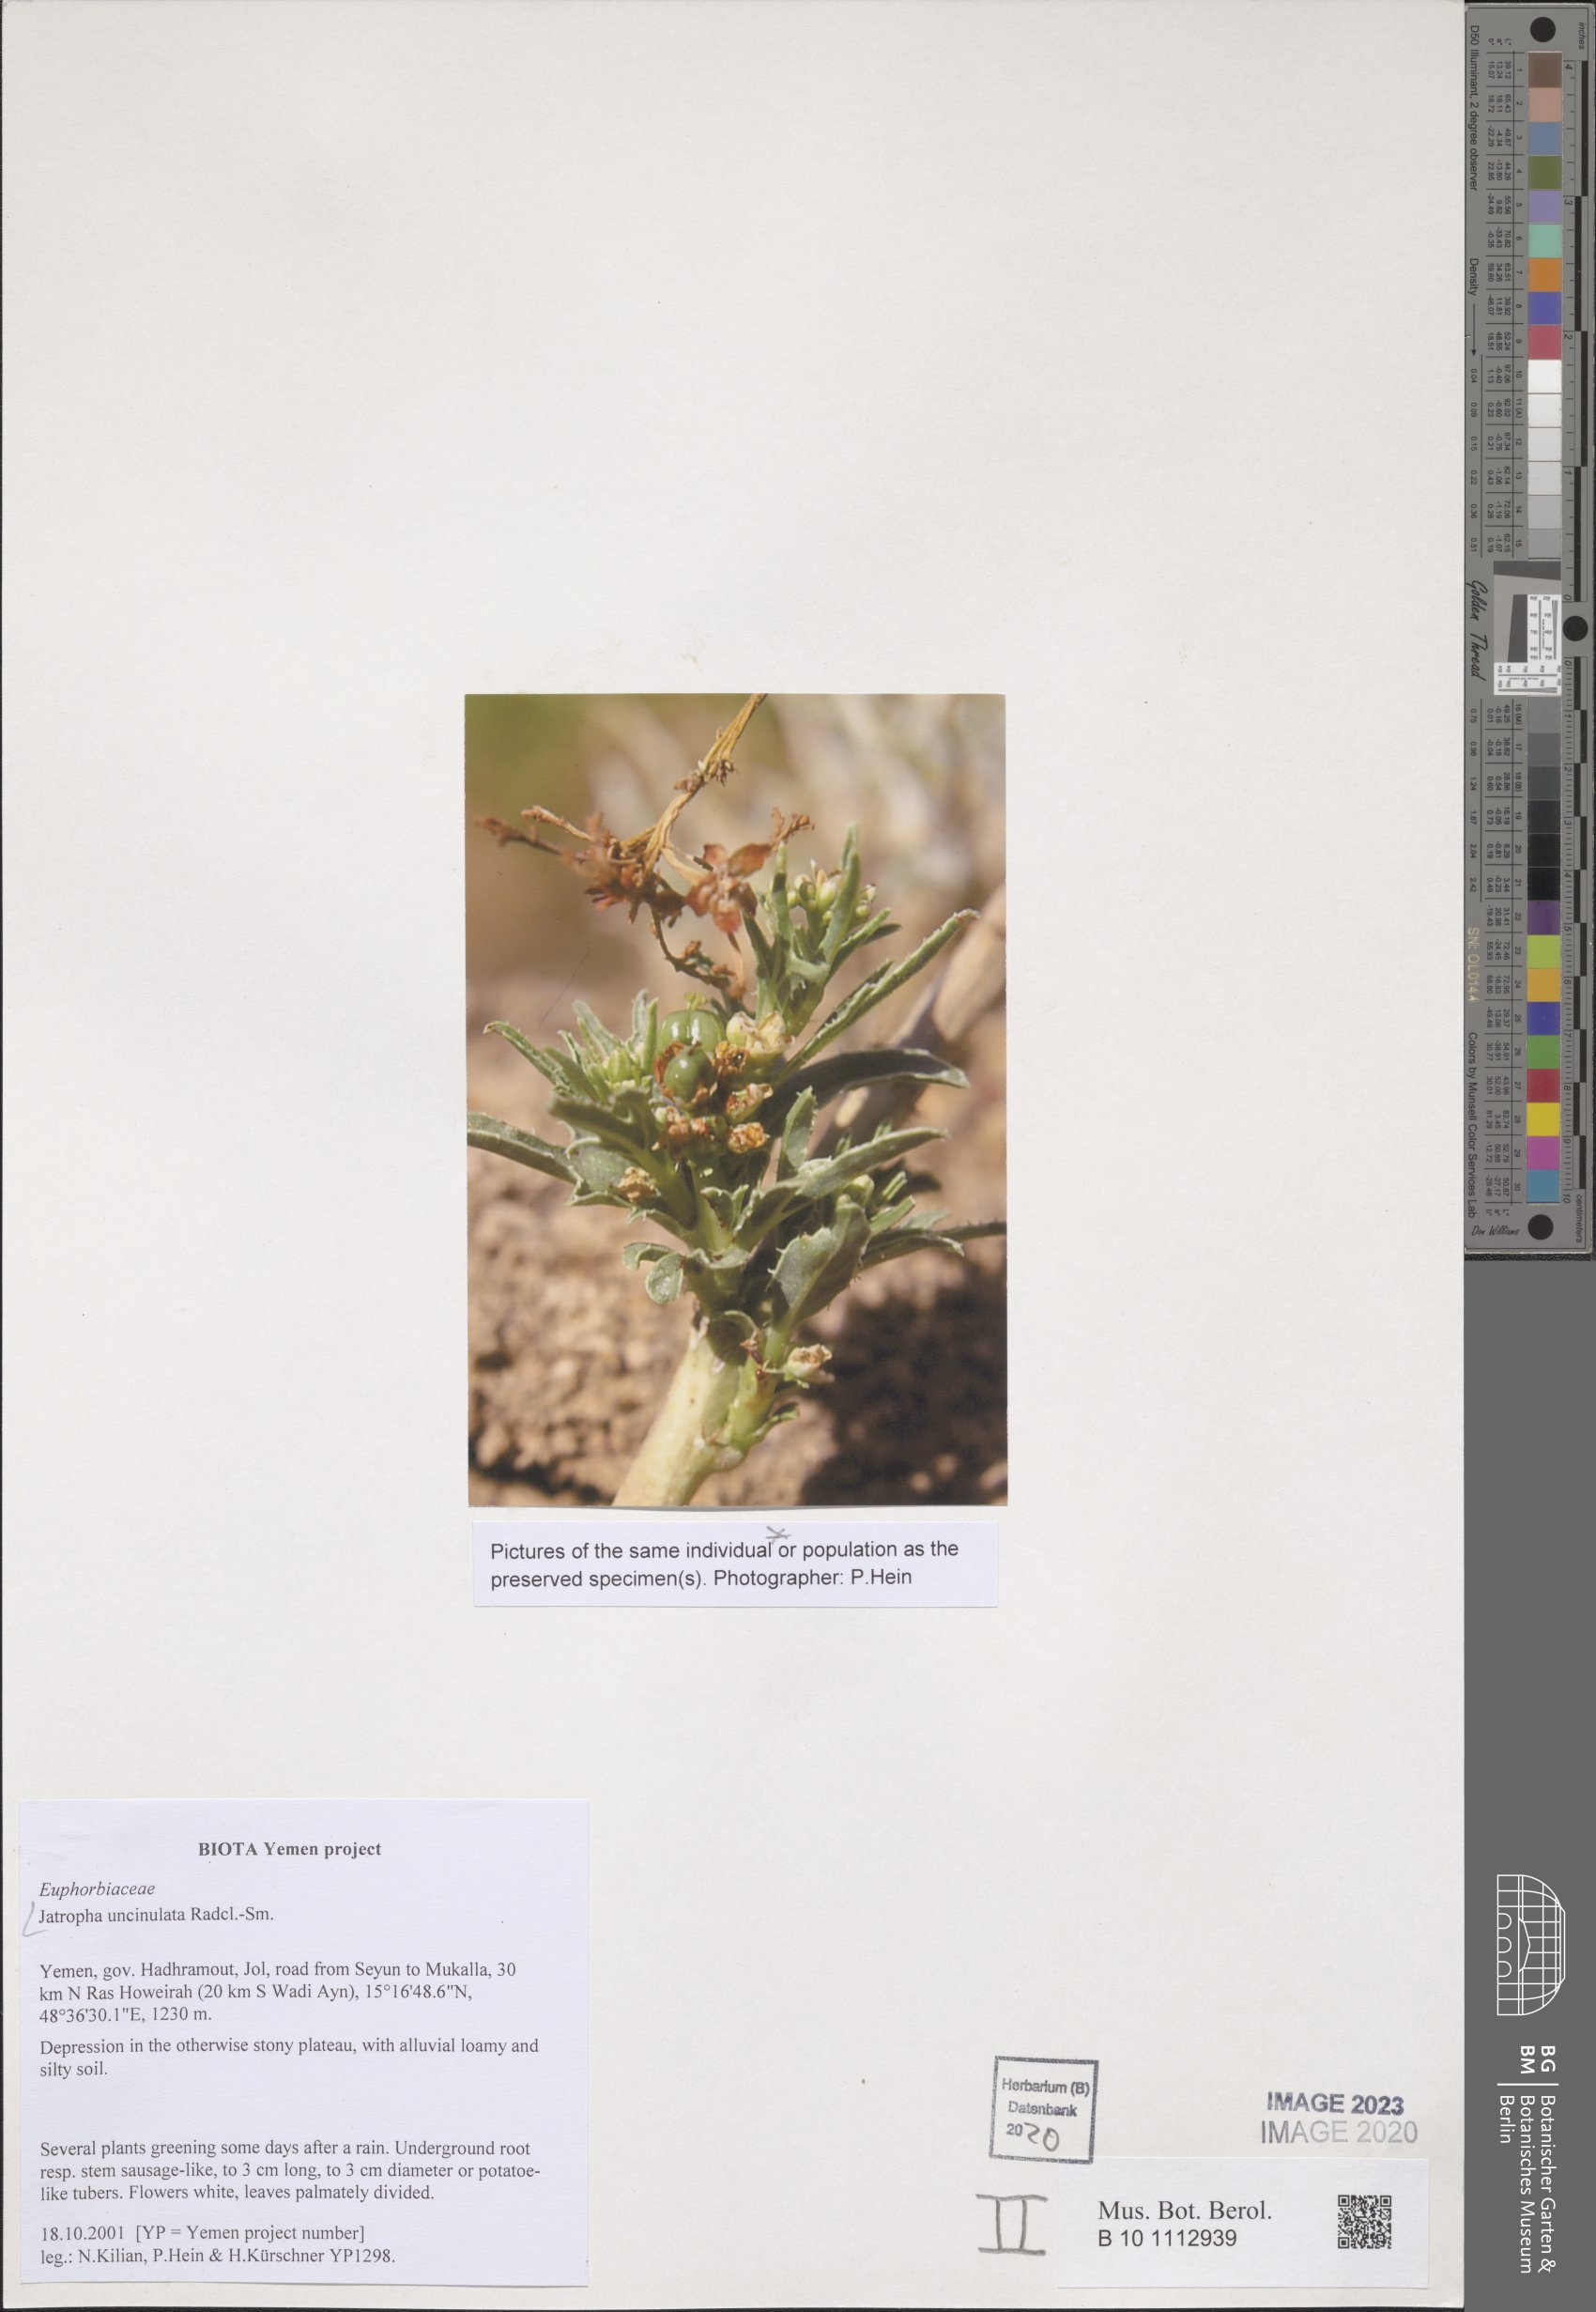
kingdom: Plantae
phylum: Tracheophyta
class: Magnoliopsida
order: Malpighiales
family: Euphorbiaceae
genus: Jatropha
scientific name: Jatropha uncinulata
